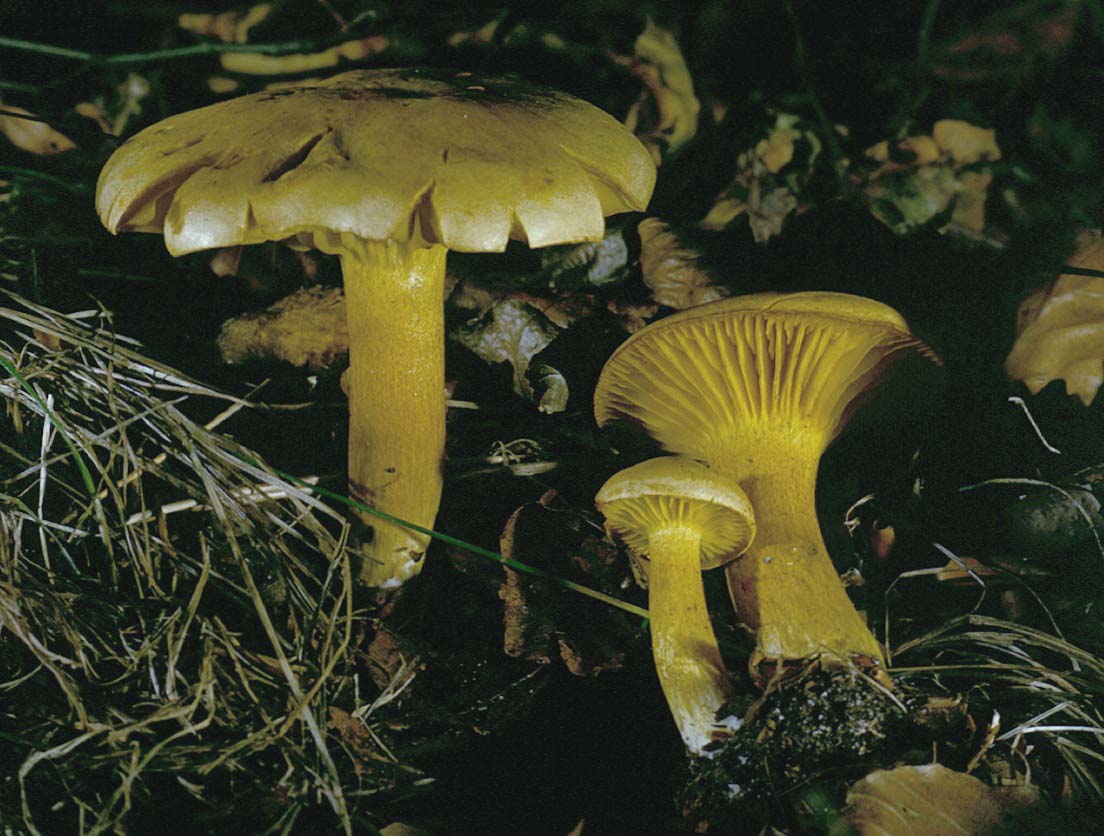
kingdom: Fungi
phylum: Basidiomycota
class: Agaricomycetes
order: Agaricales
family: Tricholomataceae
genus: Tricholoma
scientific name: Tricholoma sulphureum
